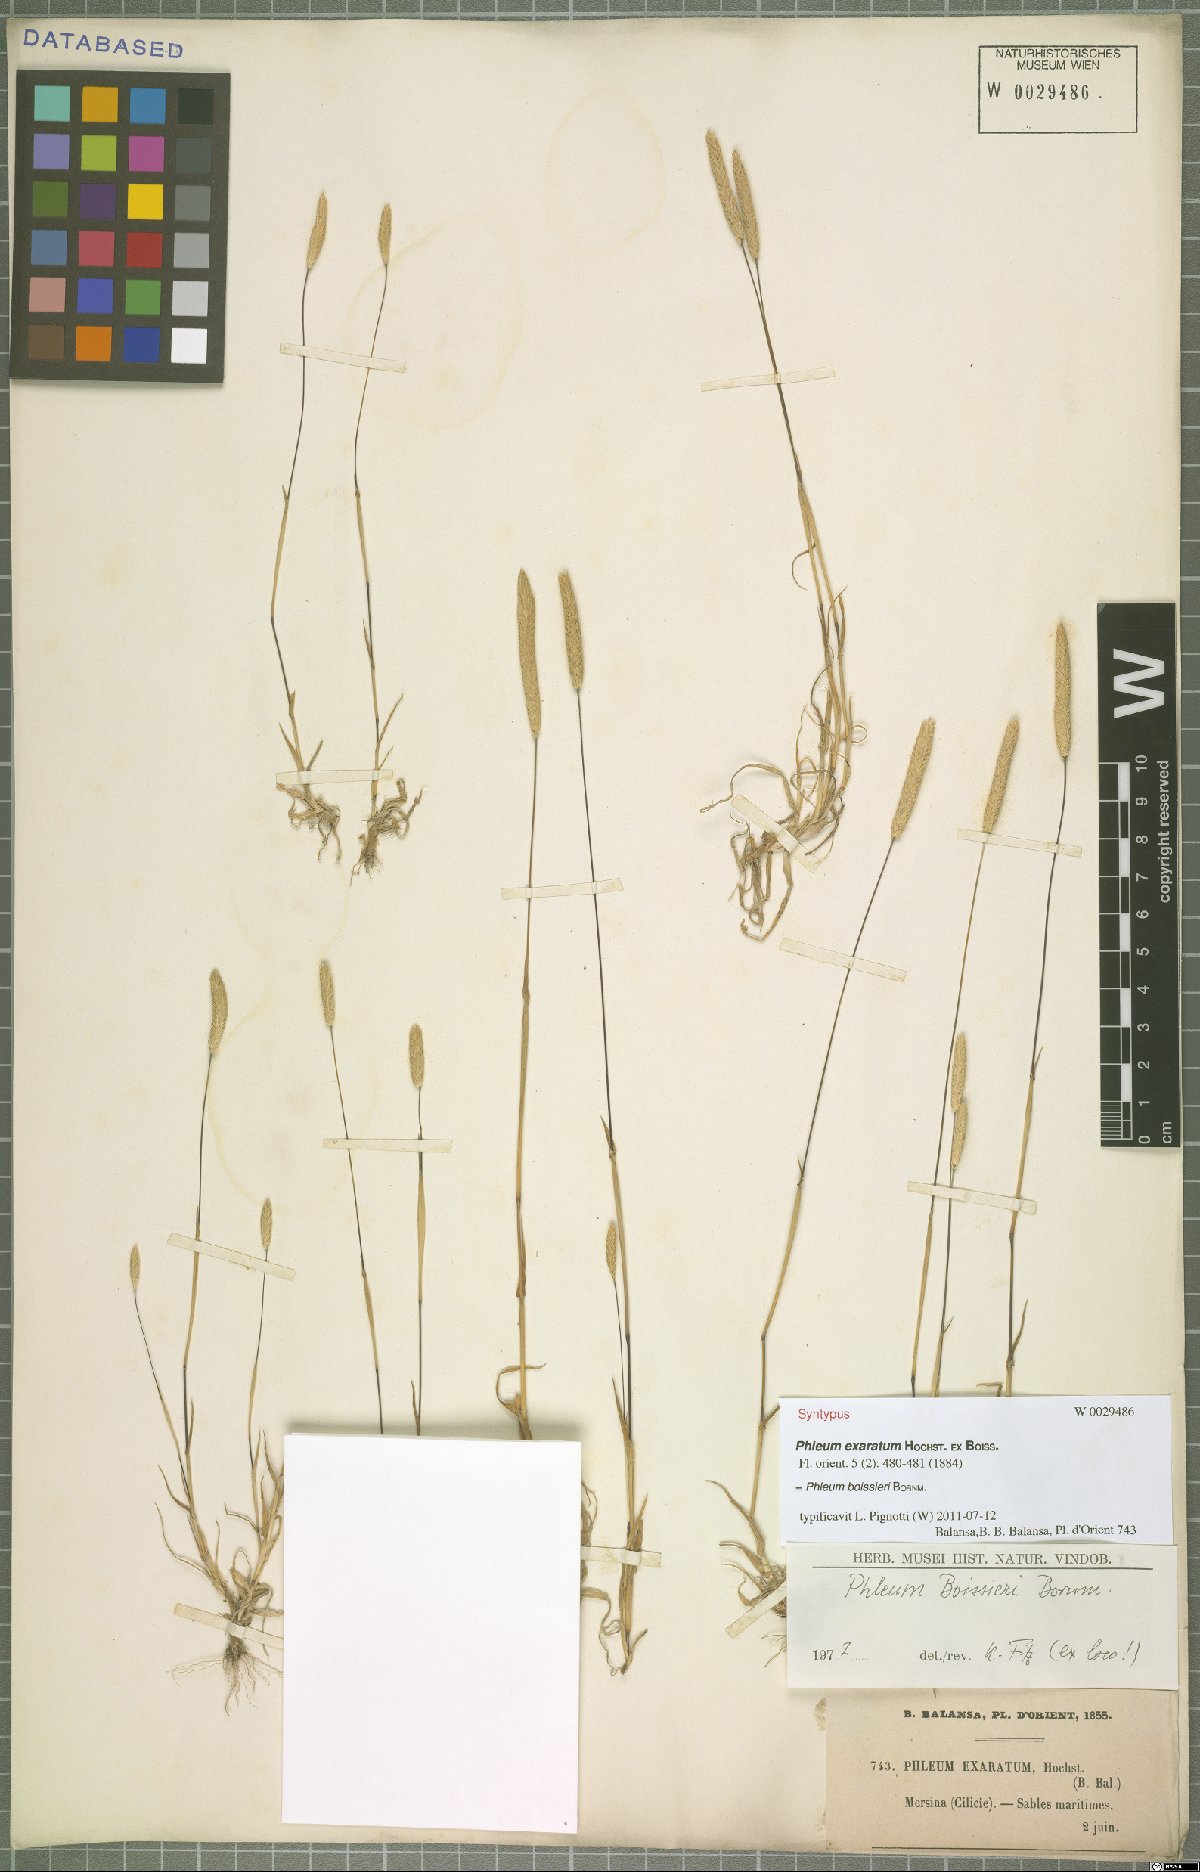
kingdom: Plantae
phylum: Tracheophyta
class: Liliopsida
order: Poales
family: Poaceae
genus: Phleum
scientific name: Phleum boissieri
